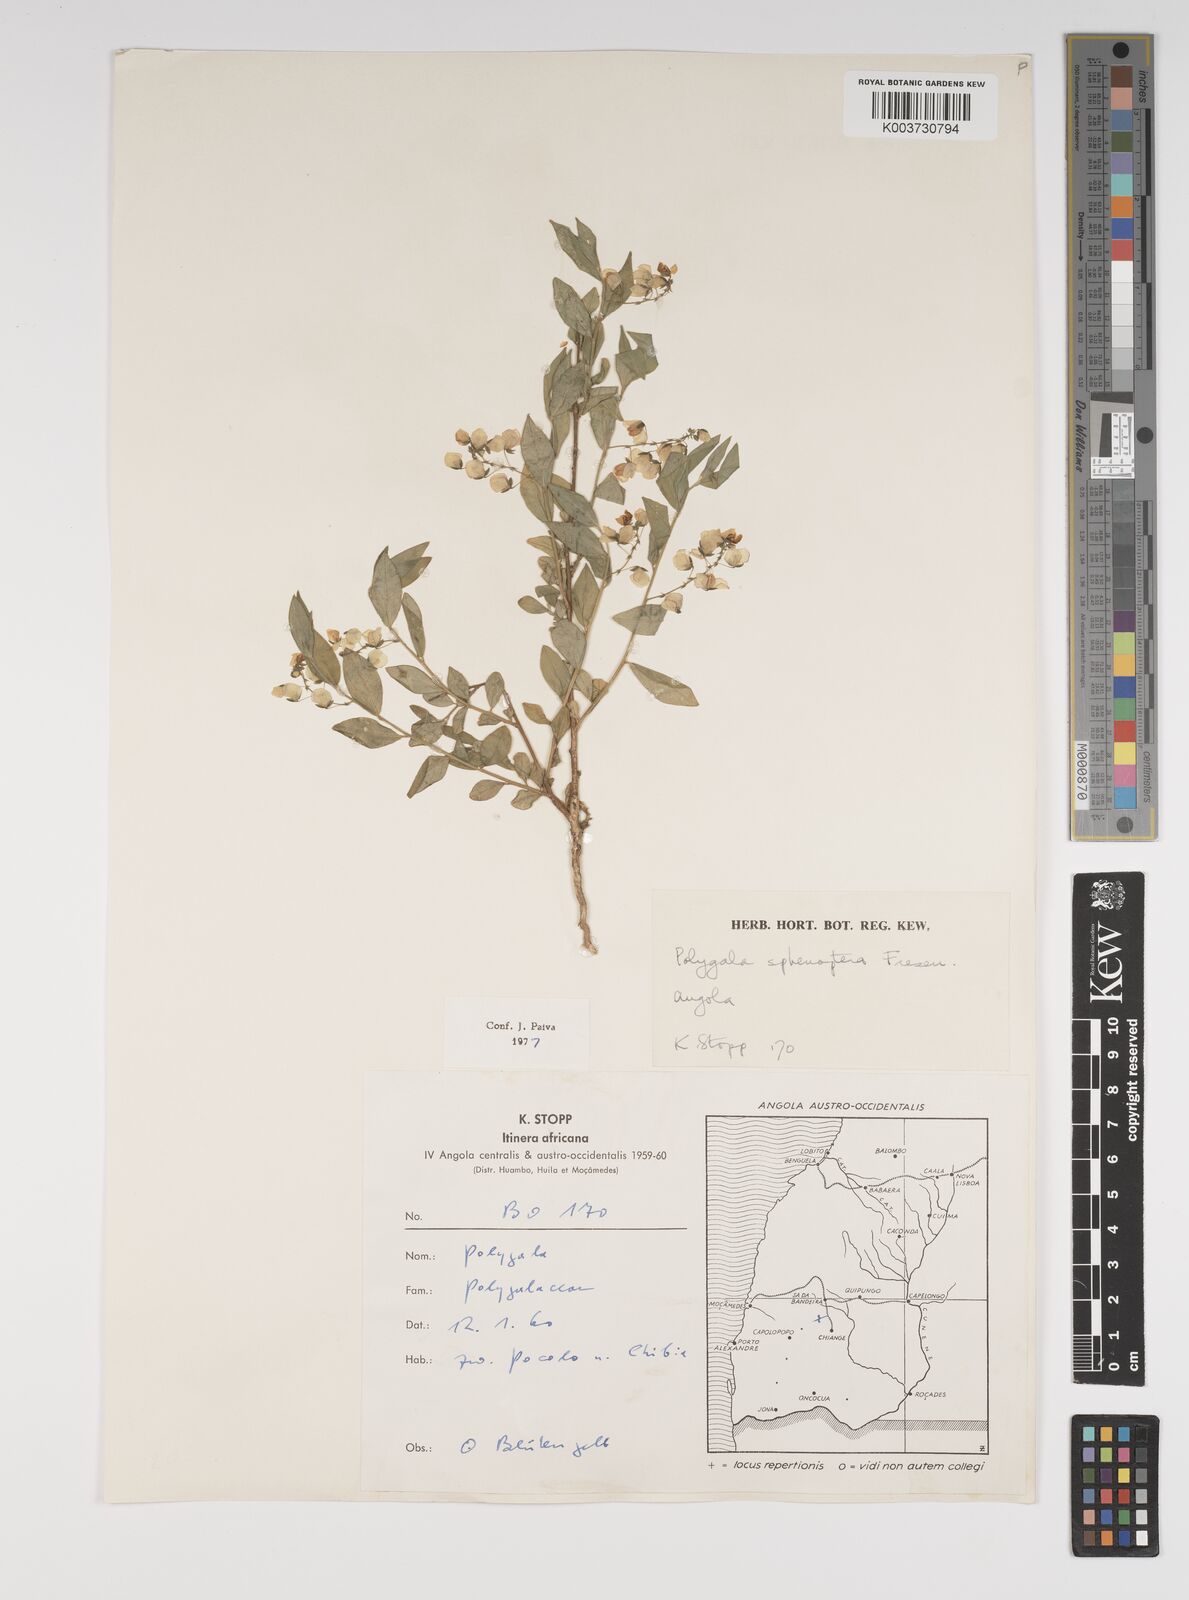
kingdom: Plantae
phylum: Tracheophyta
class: Magnoliopsida
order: Fabales
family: Polygalaceae
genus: Polygala
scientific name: Polygala sphenoptera
